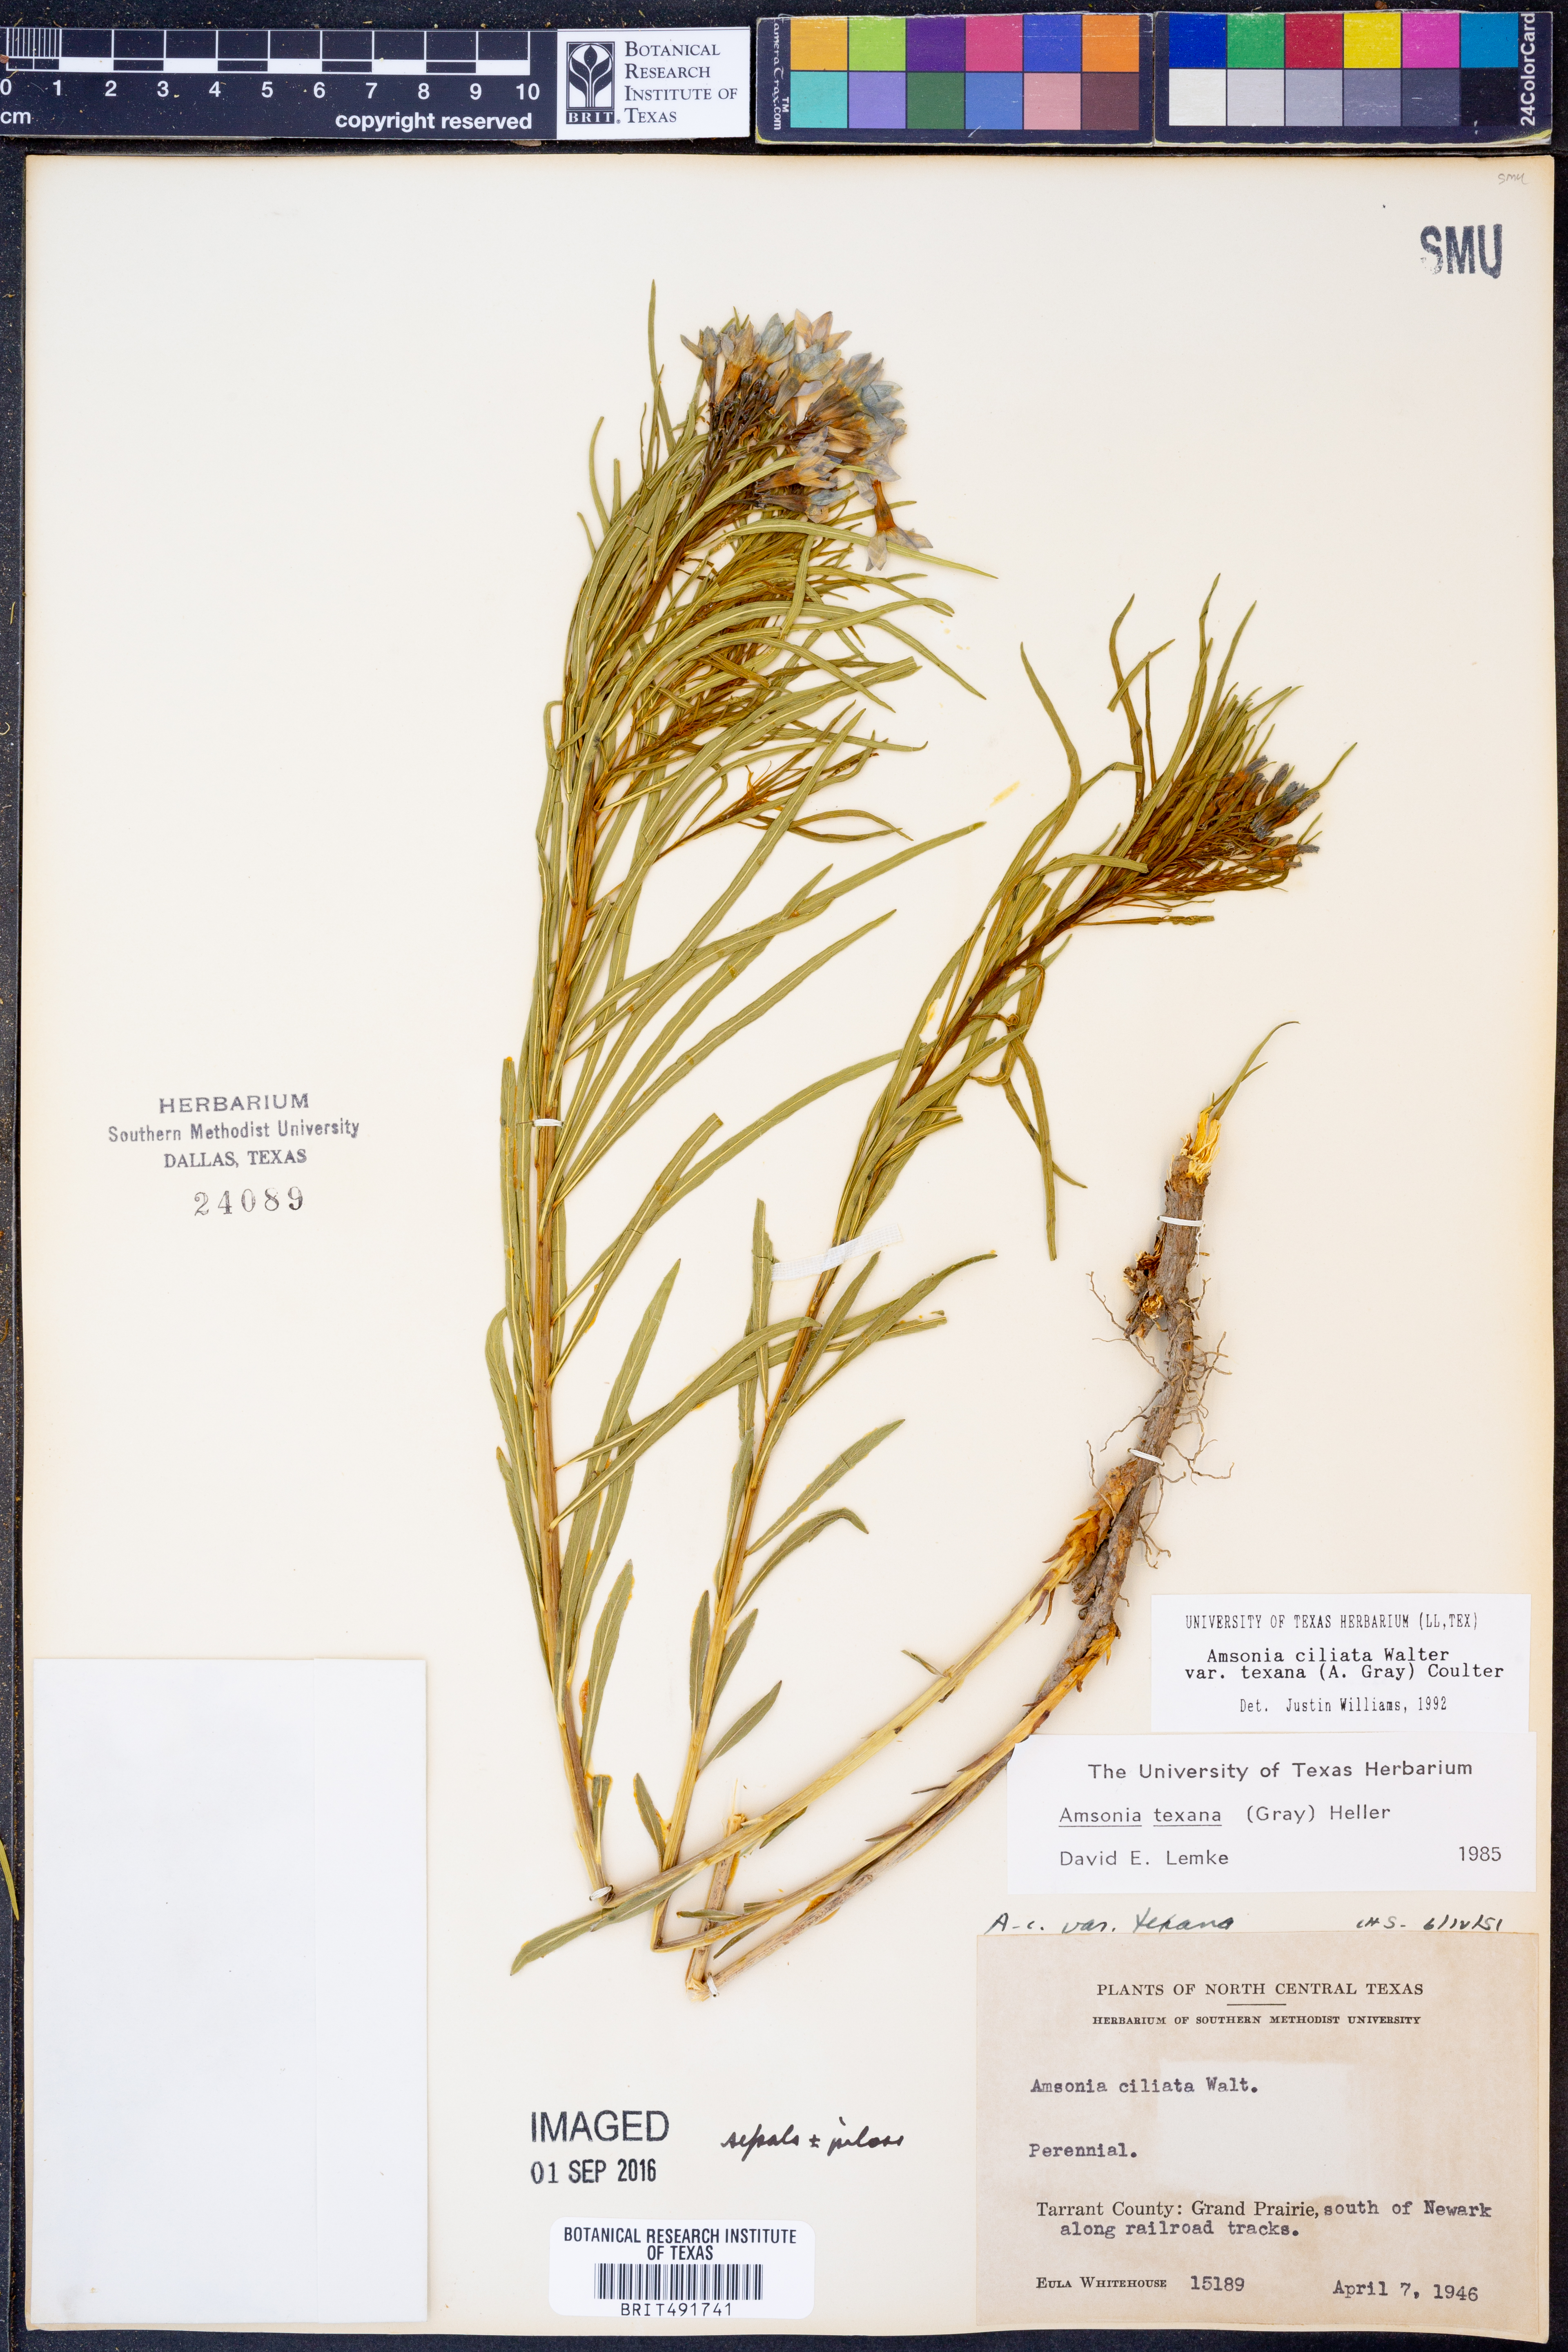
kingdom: Plantae
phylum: Tracheophyta
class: Magnoliopsida
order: Gentianales
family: Apocynaceae
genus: Amsonia
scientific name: Amsonia ciliata
